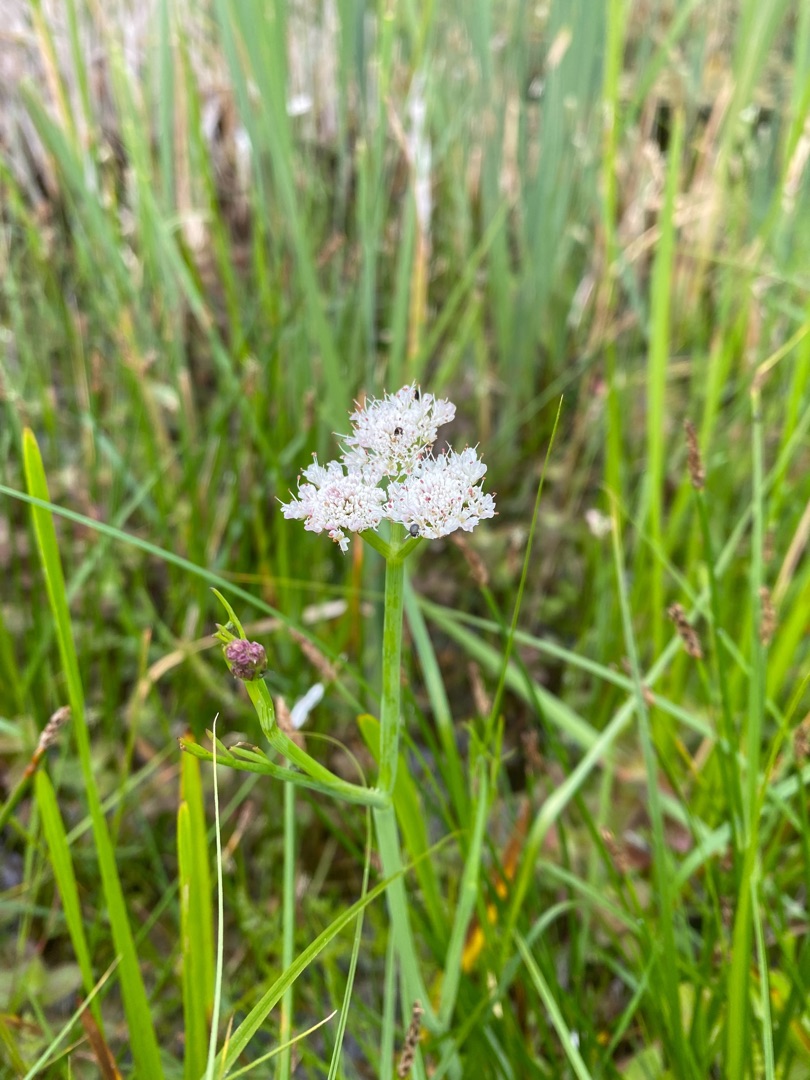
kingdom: Plantae
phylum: Tracheophyta
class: Magnoliopsida
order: Apiales
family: Apiaceae
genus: Oenanthe
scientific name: Oenanthe fistulosa
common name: Vand-klaseskærm
